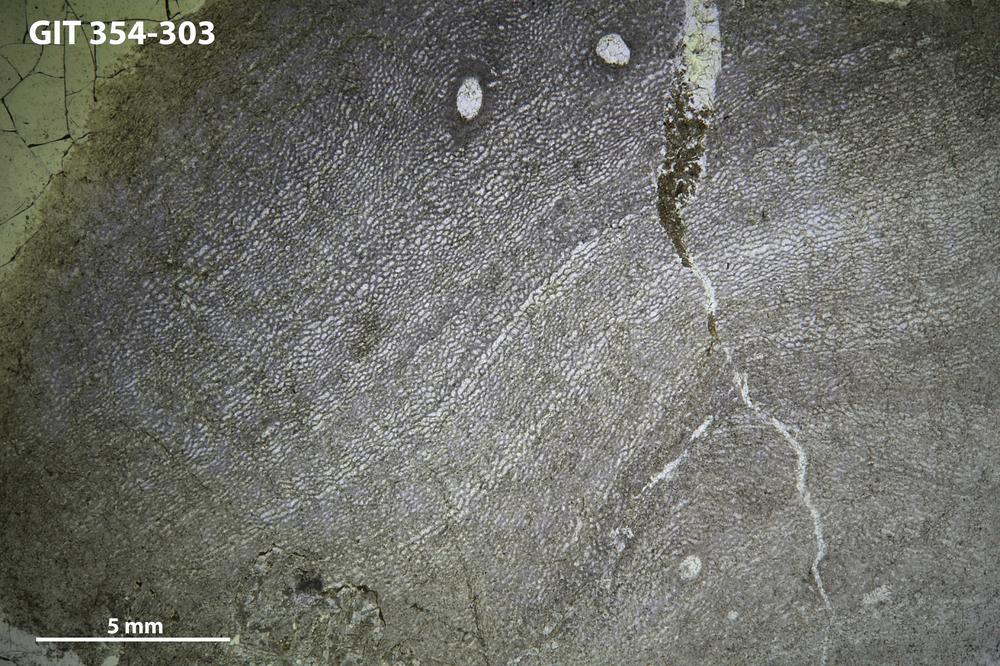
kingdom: Animalia
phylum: Porifera
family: Clathrodictyidae
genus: Clathrodictyon
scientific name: Clathrodictyon boreale
